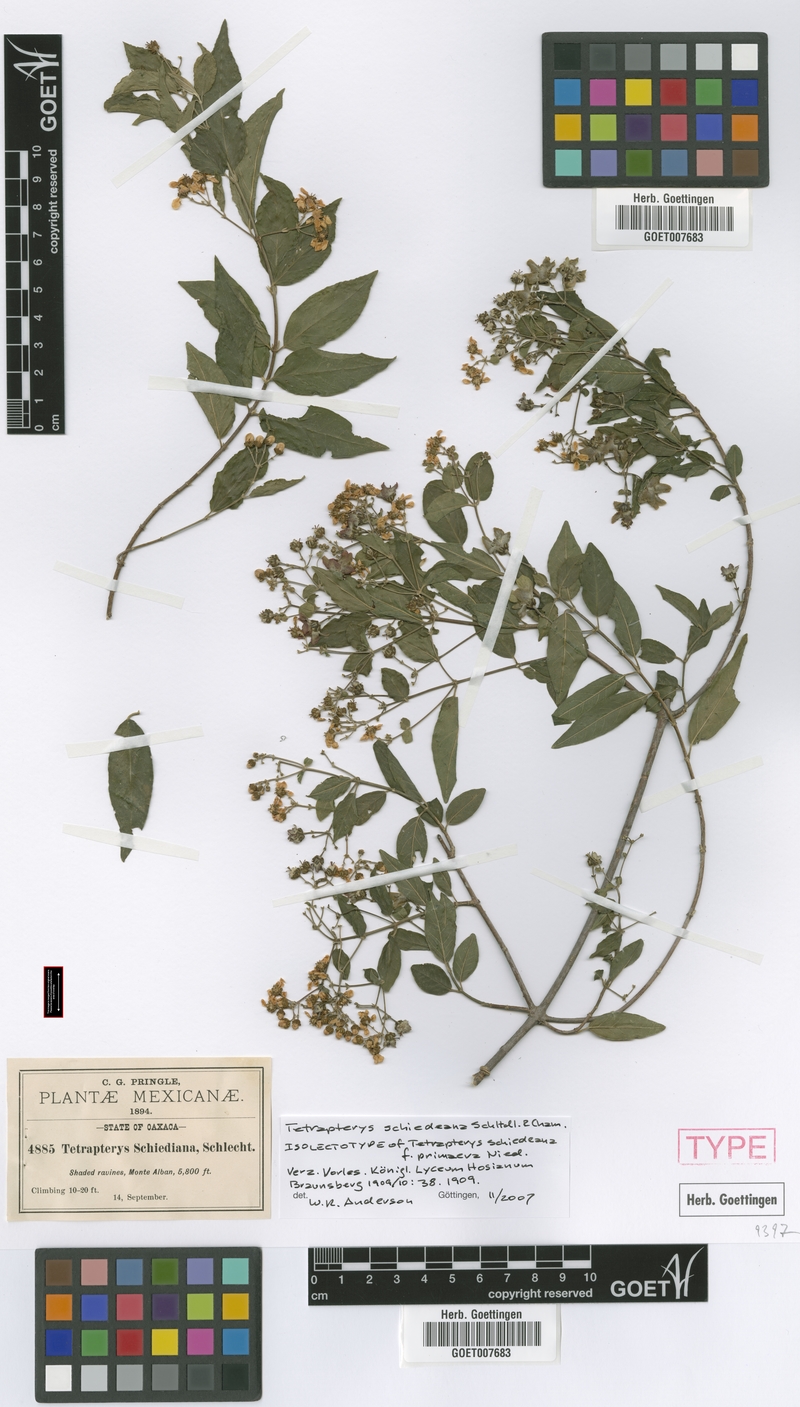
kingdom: Plantae
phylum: Tracheophyta
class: Magnoliopsida
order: Malpighiales
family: Malpighiaceae
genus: Tetrapterys
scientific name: Tetrapterys schiedeana
